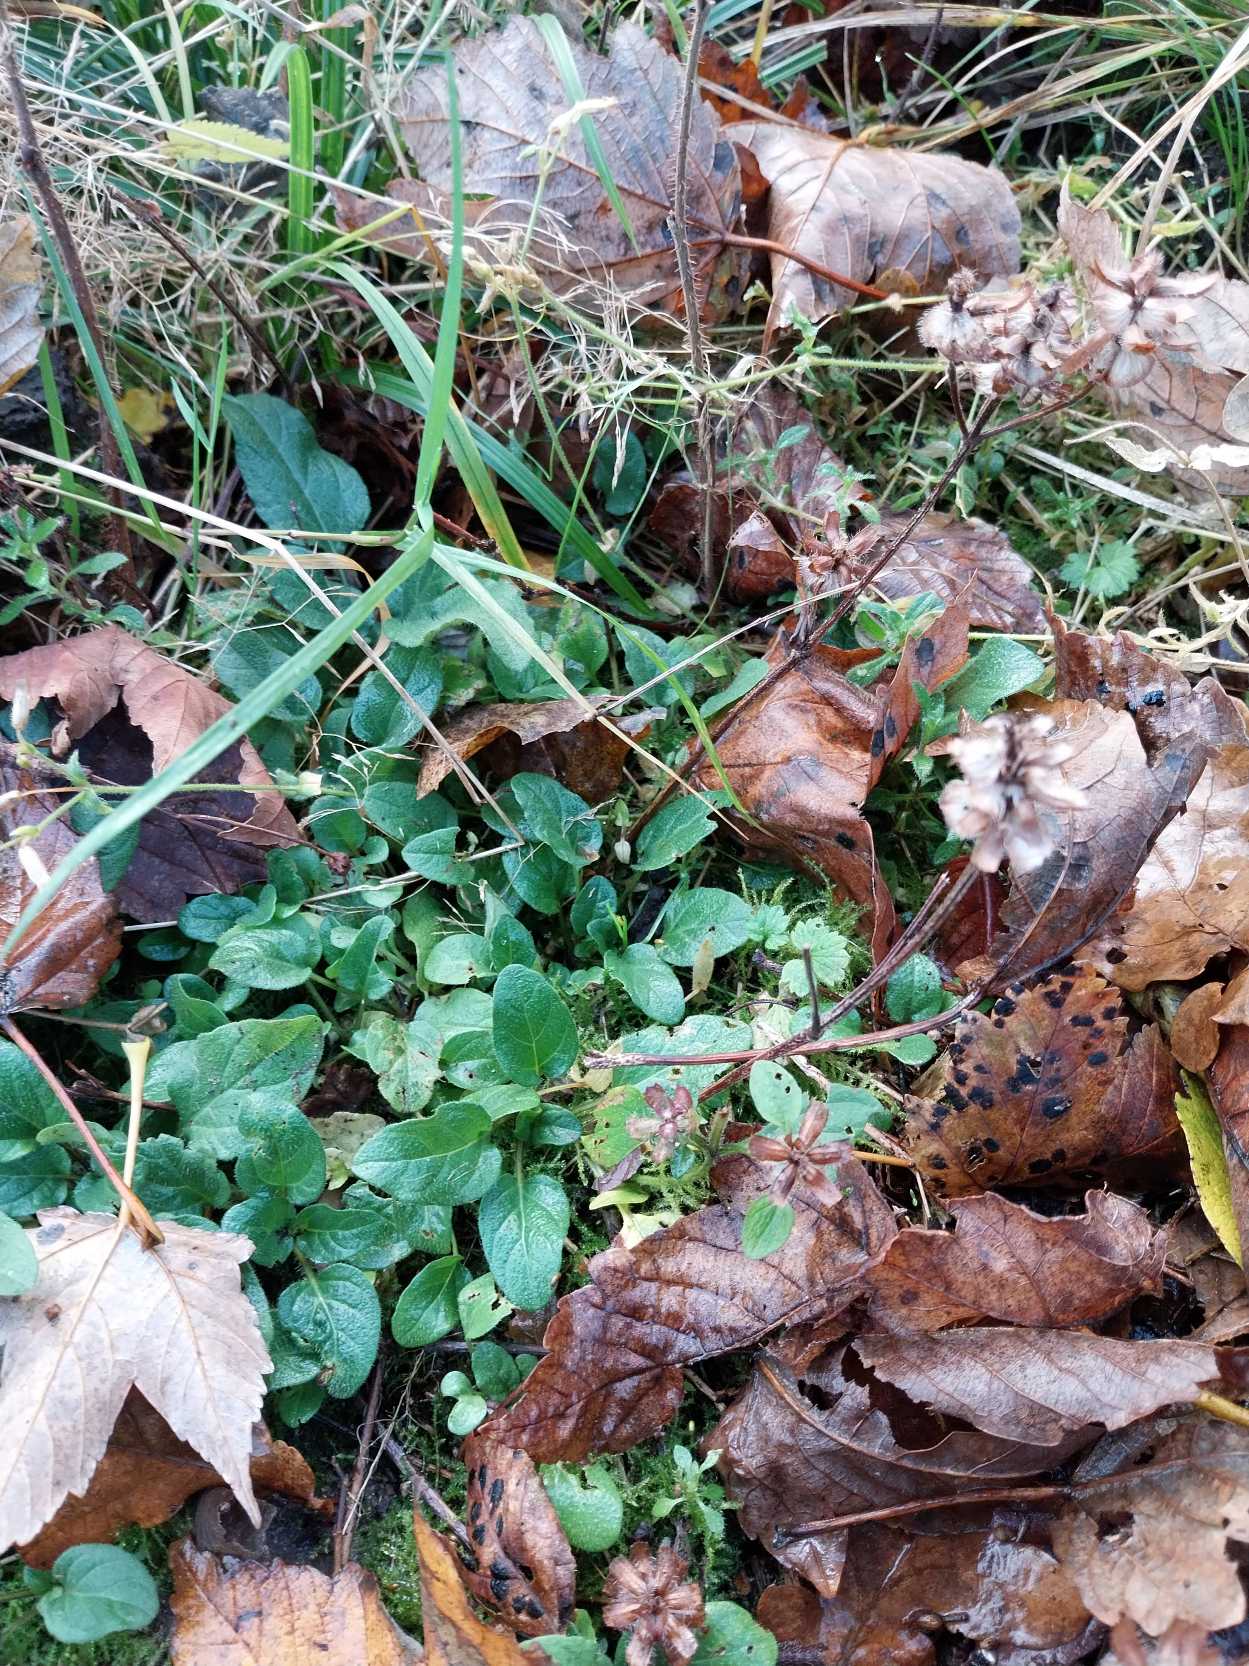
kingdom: Plantae
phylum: Tracheophyta
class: Magnoliopsida
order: Lamiales
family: Lamiaceae
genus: Prunella
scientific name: Prunella vulgaris
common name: Almindelig brunelle
